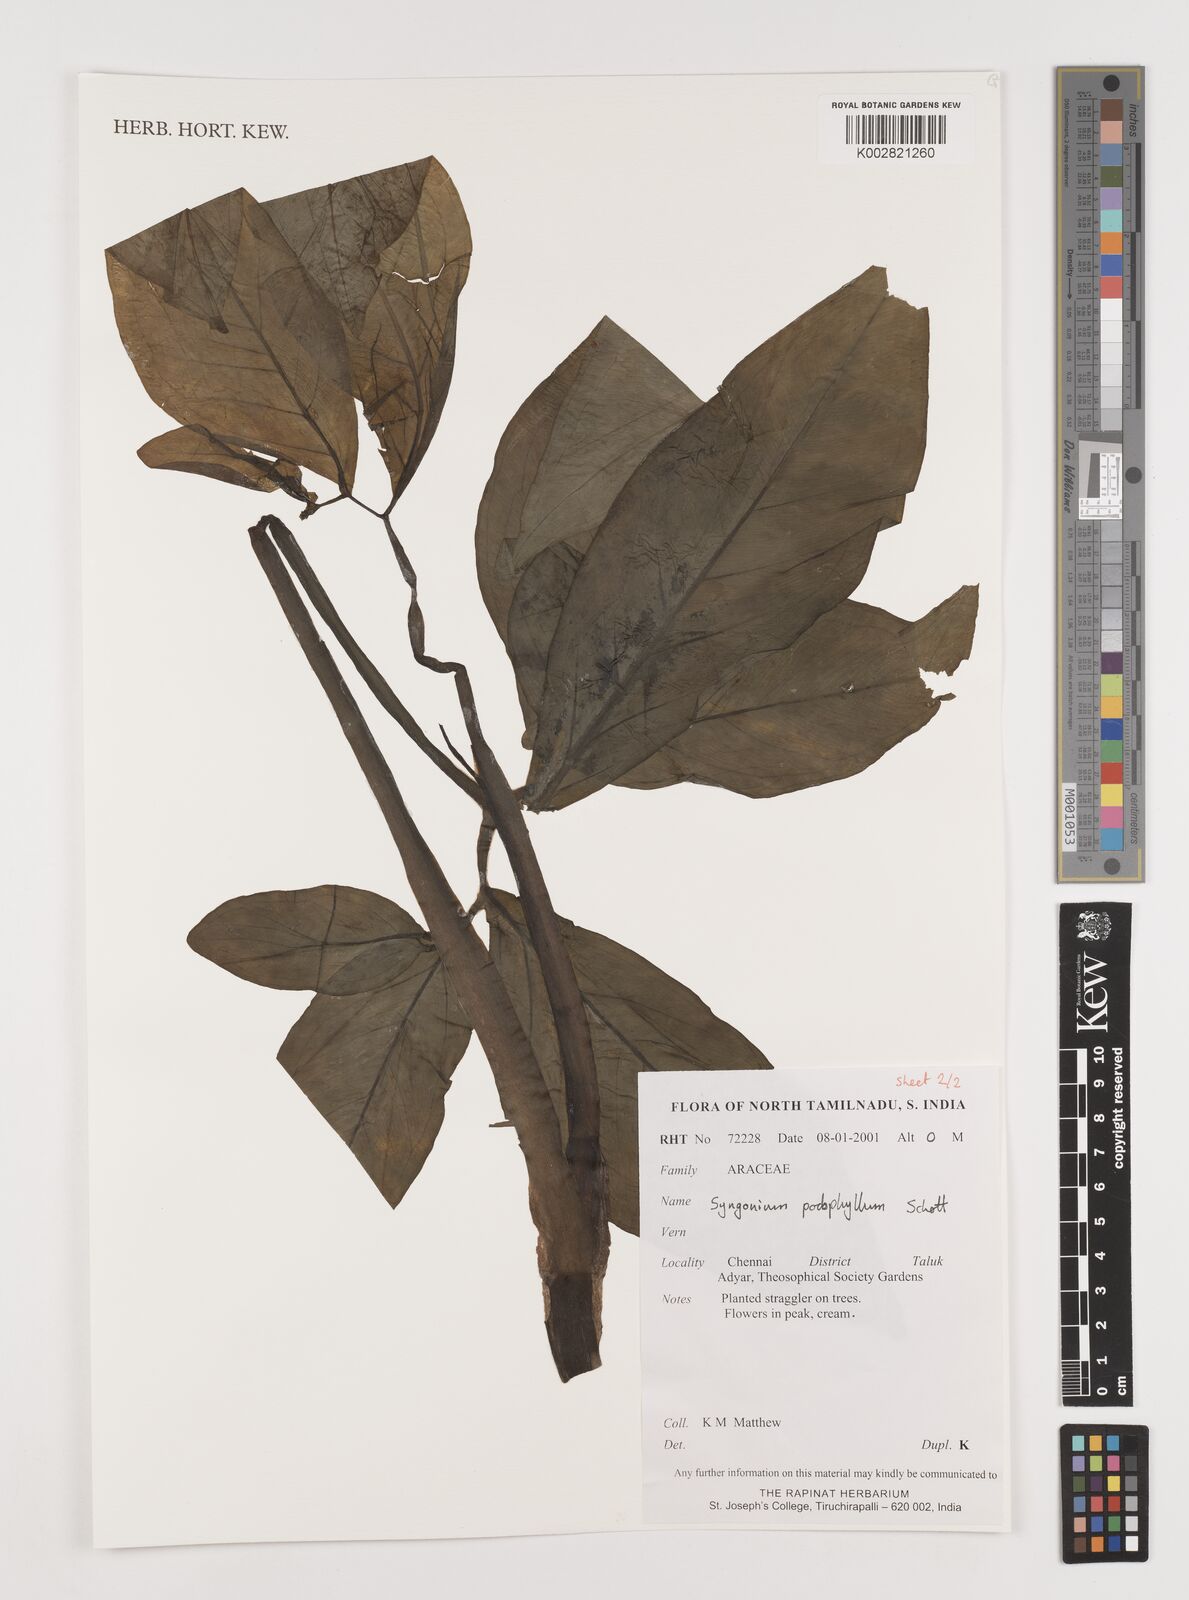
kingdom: Plantae
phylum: Tracheophyta
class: Liliopsida
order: Alismatales
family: Araceae
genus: Syngonium
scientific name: Syngonium podophyllum
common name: American evergreen
